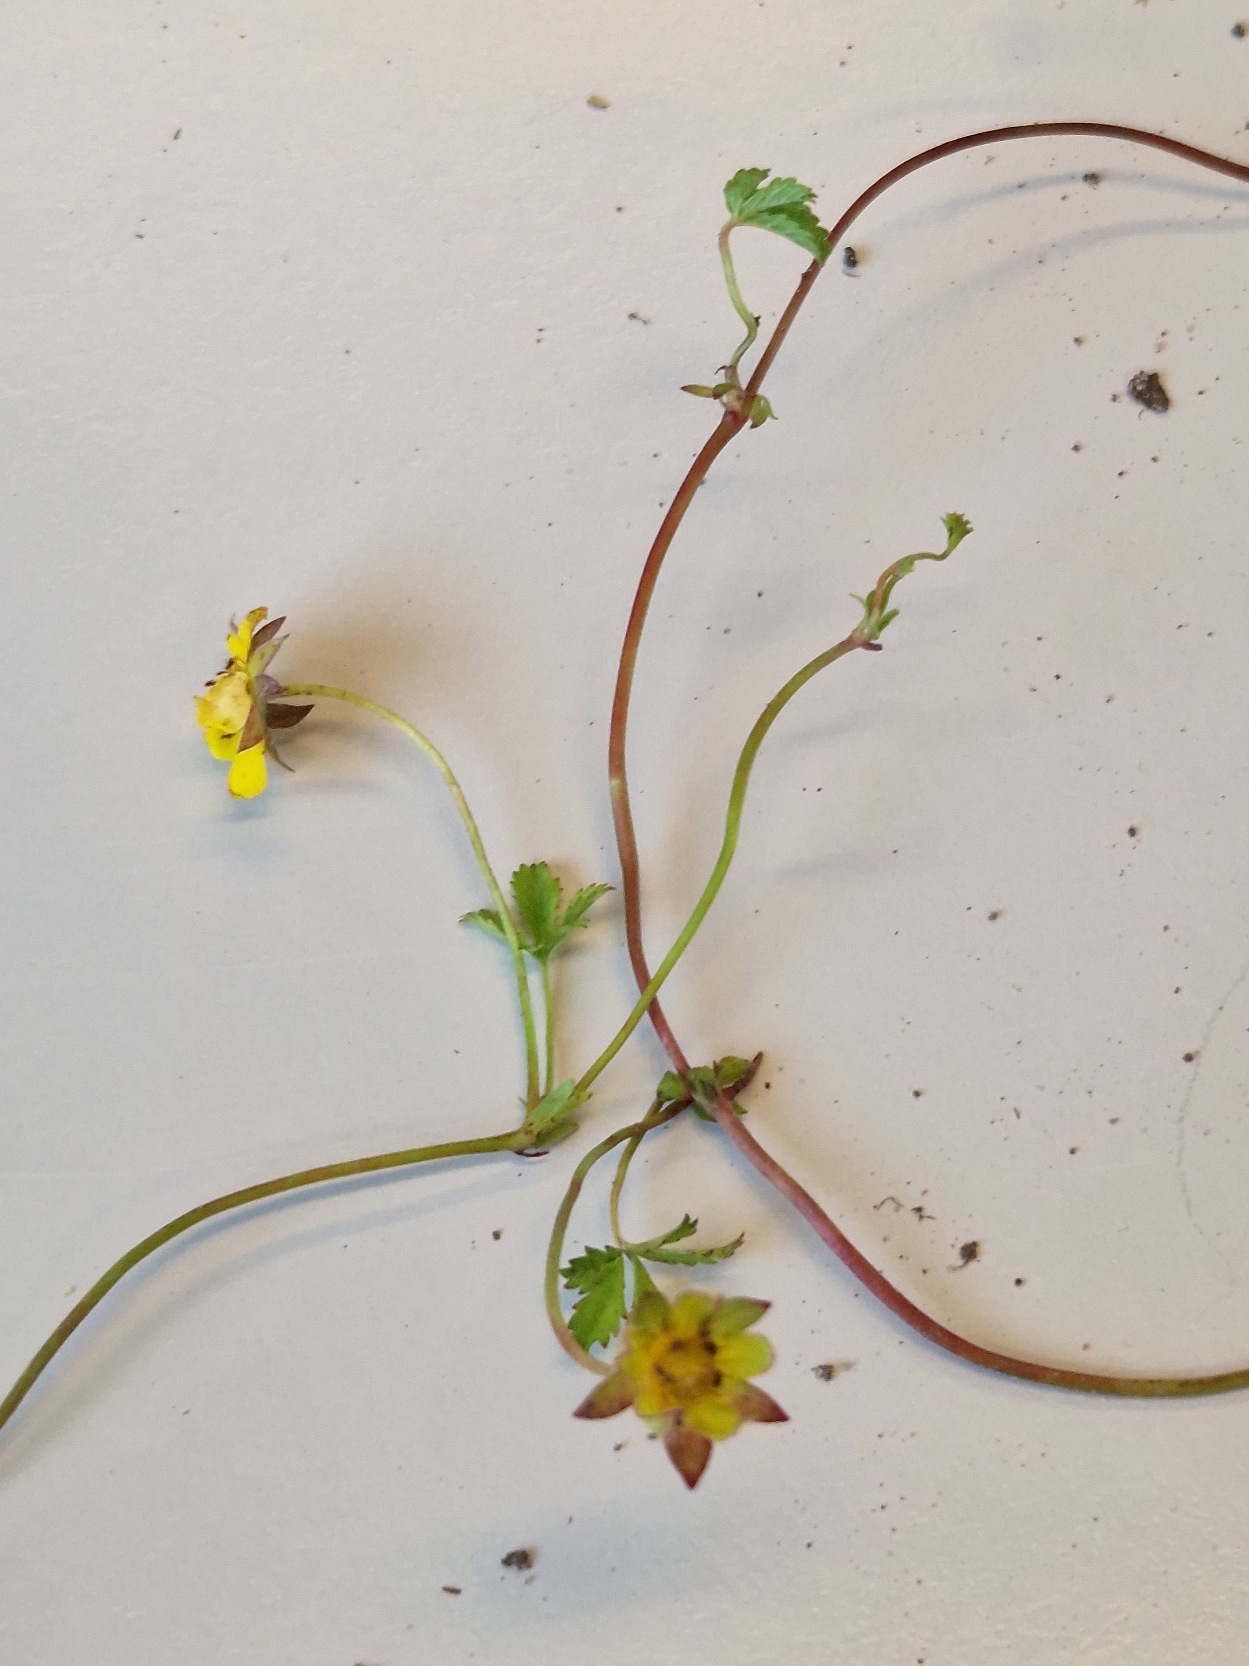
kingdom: Plantae
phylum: Tracheophyta
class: Magnoliopsida
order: Rosales
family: Rosaceae
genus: Potentilla
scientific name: Potentilla reptans
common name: Krybende potentil
